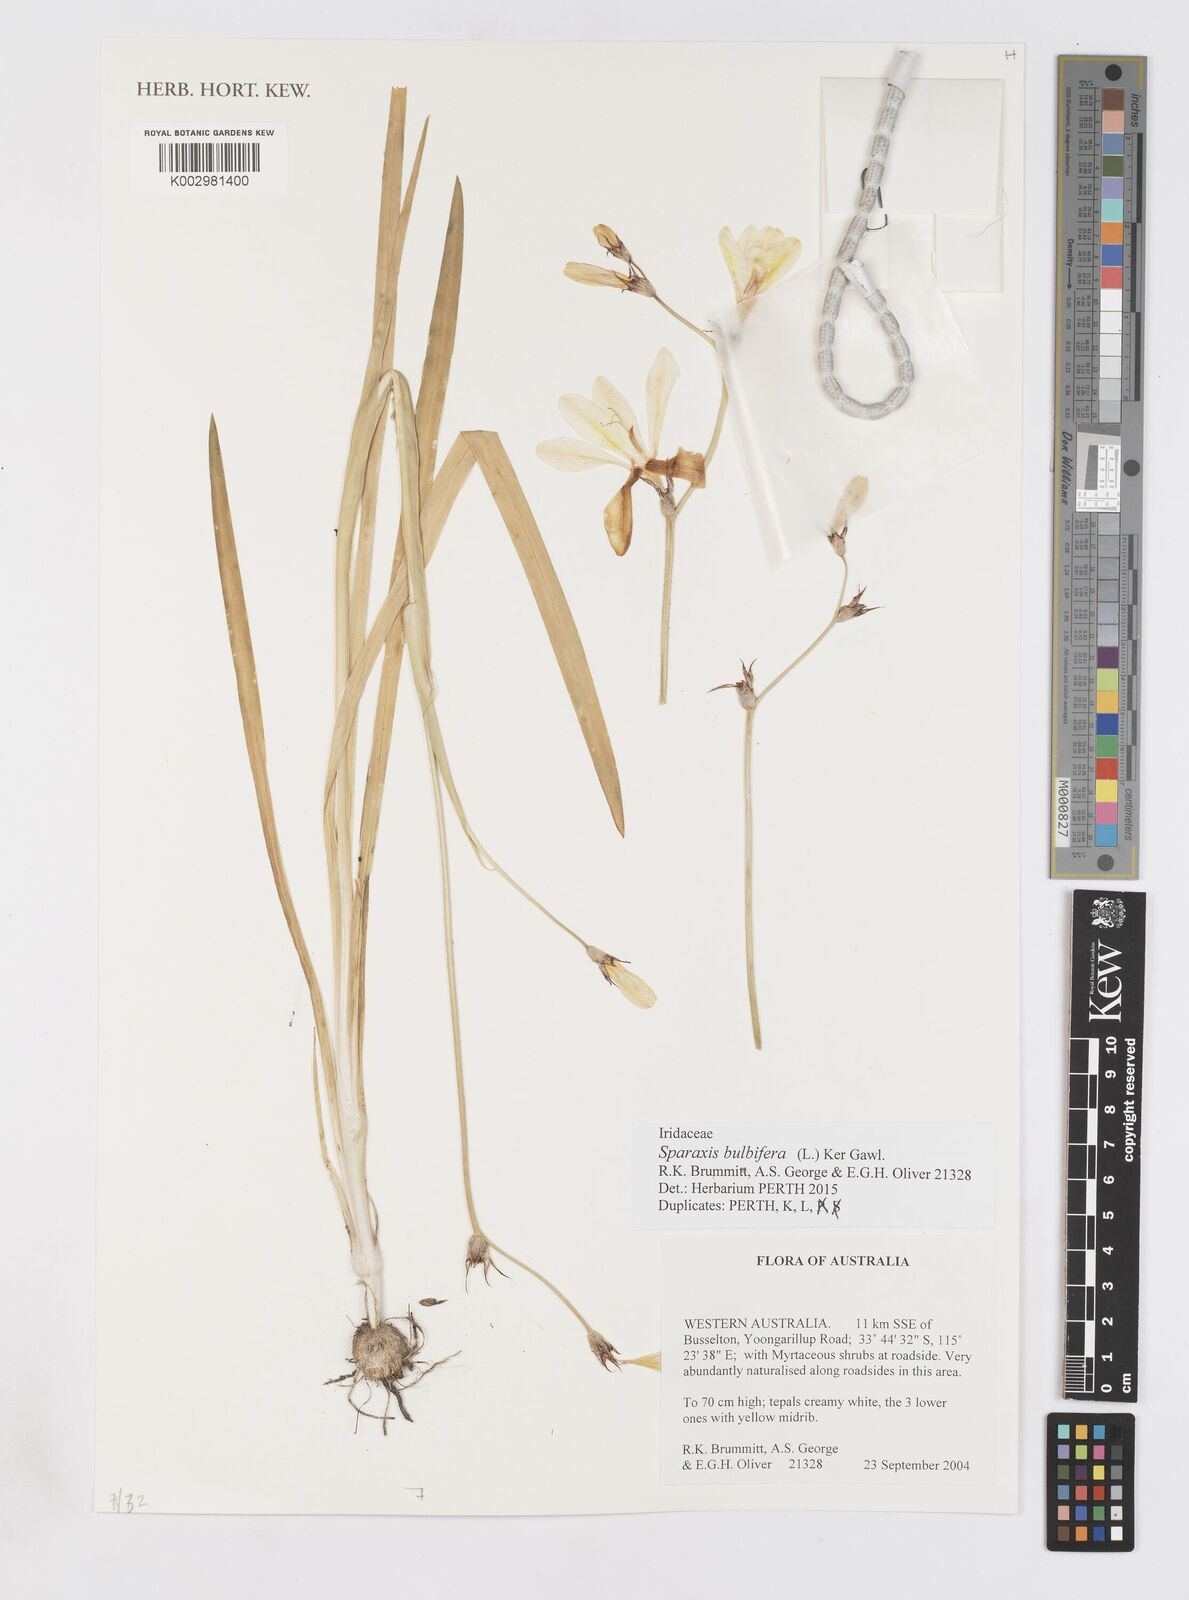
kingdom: Plantae
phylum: Tracheophyta
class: Liliopsida
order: Asparagales
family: Iridaceae
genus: Sparaxis
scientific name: Sparaxis bulbifera
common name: Harlequin-flower
